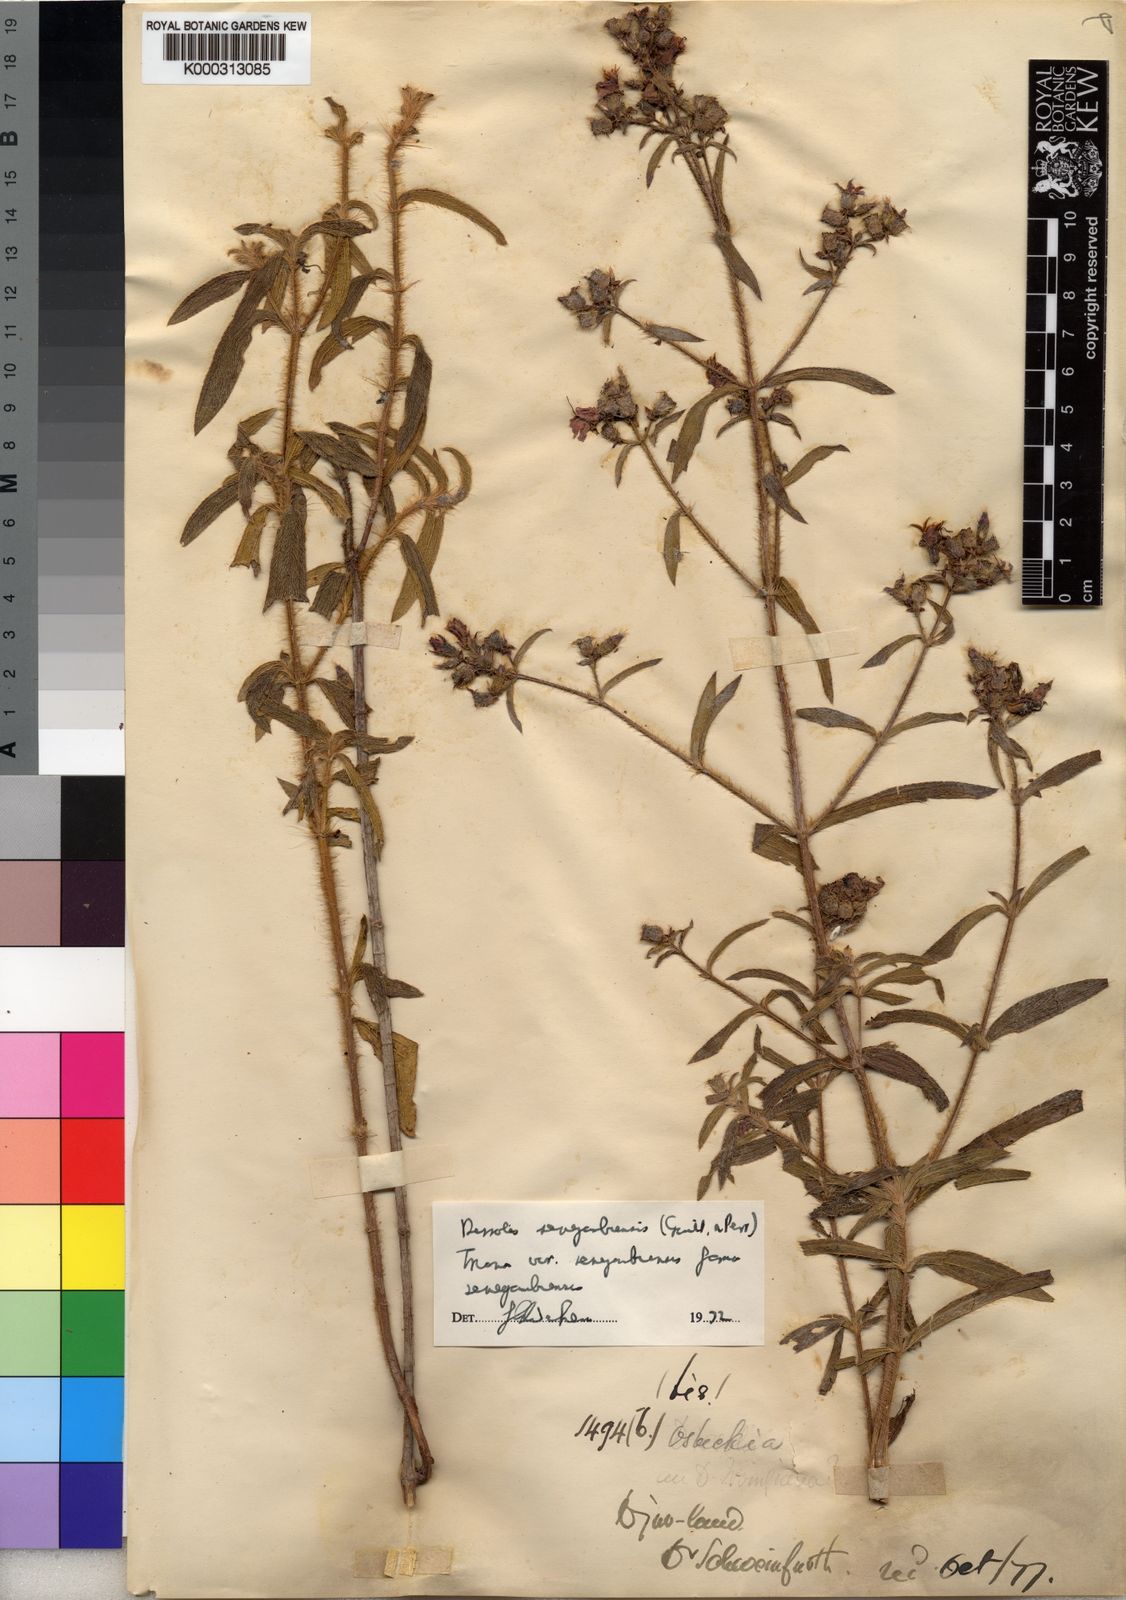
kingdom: Plantae
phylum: Tracheophyta
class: Magnoliopsida
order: Myrtales
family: Melastomataceae
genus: Antherotoma
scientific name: Antherotoma
